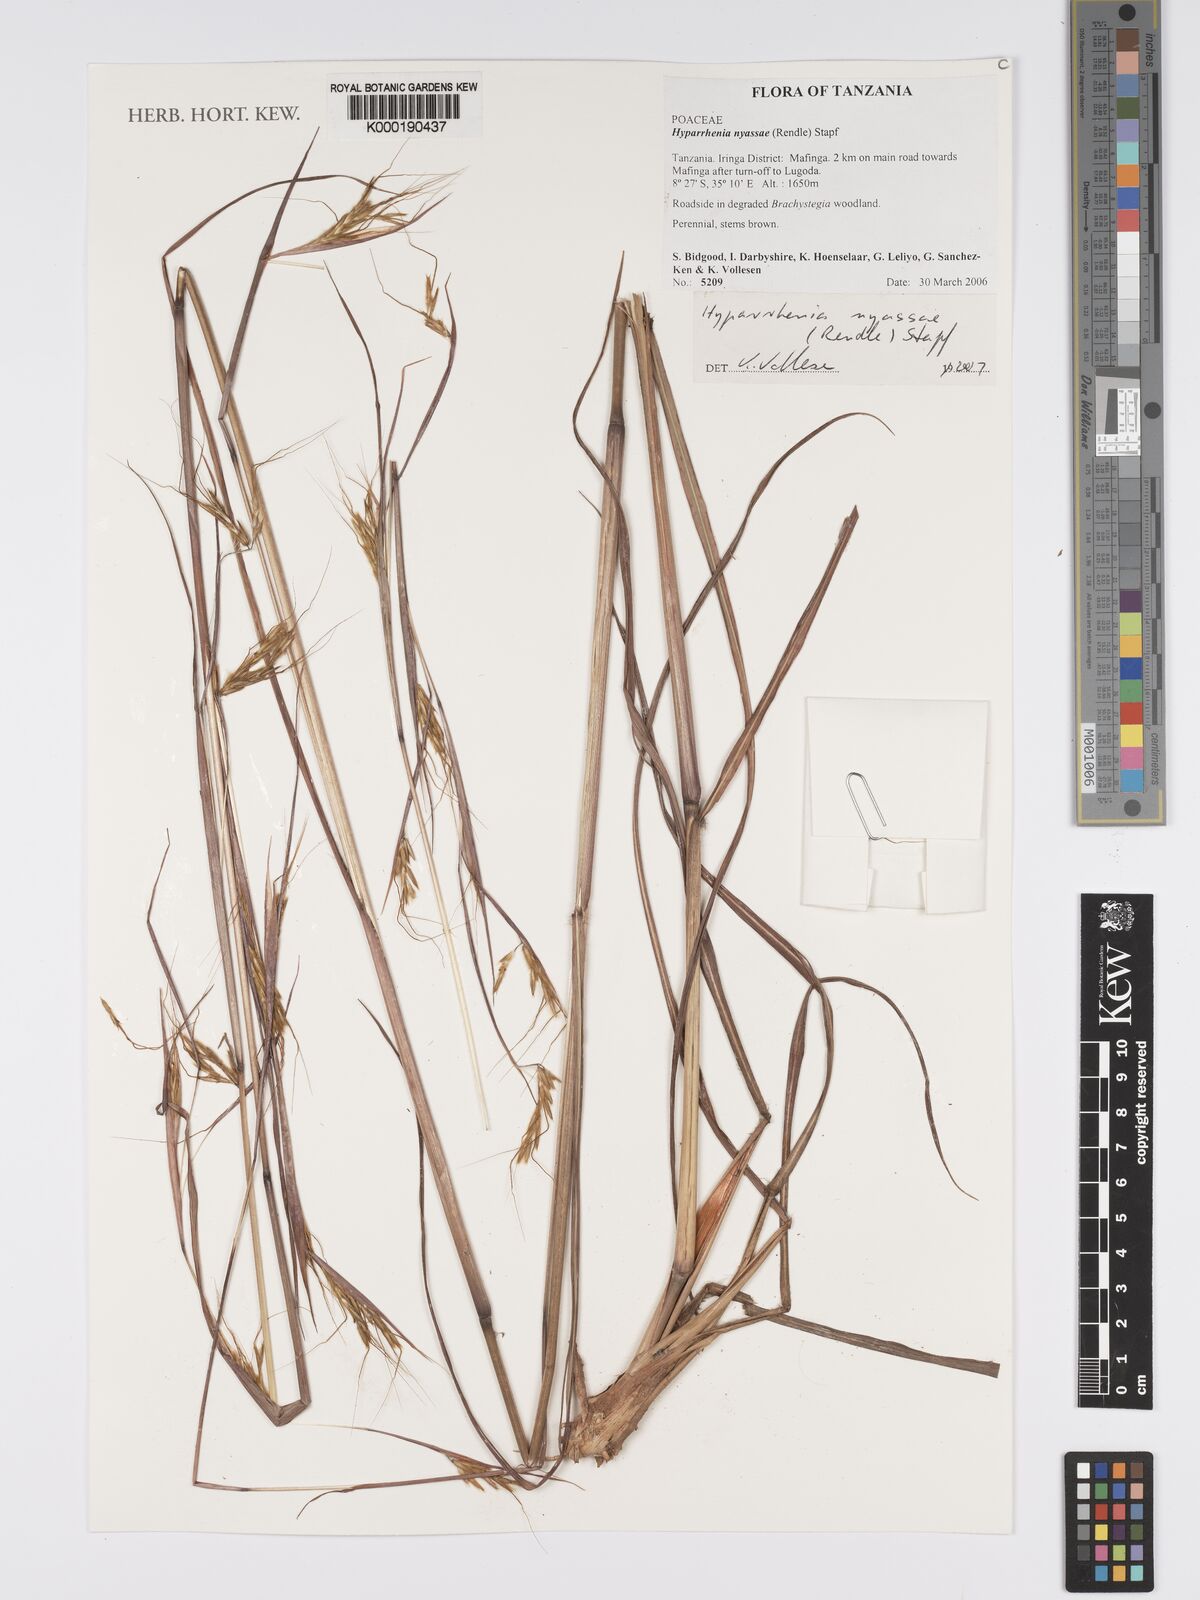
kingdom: Plantae
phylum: Tracheophyta
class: Liliopsida
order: Poales
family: Poaceae
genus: Hyparrhenia
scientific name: Hyparrhenia nyassae
